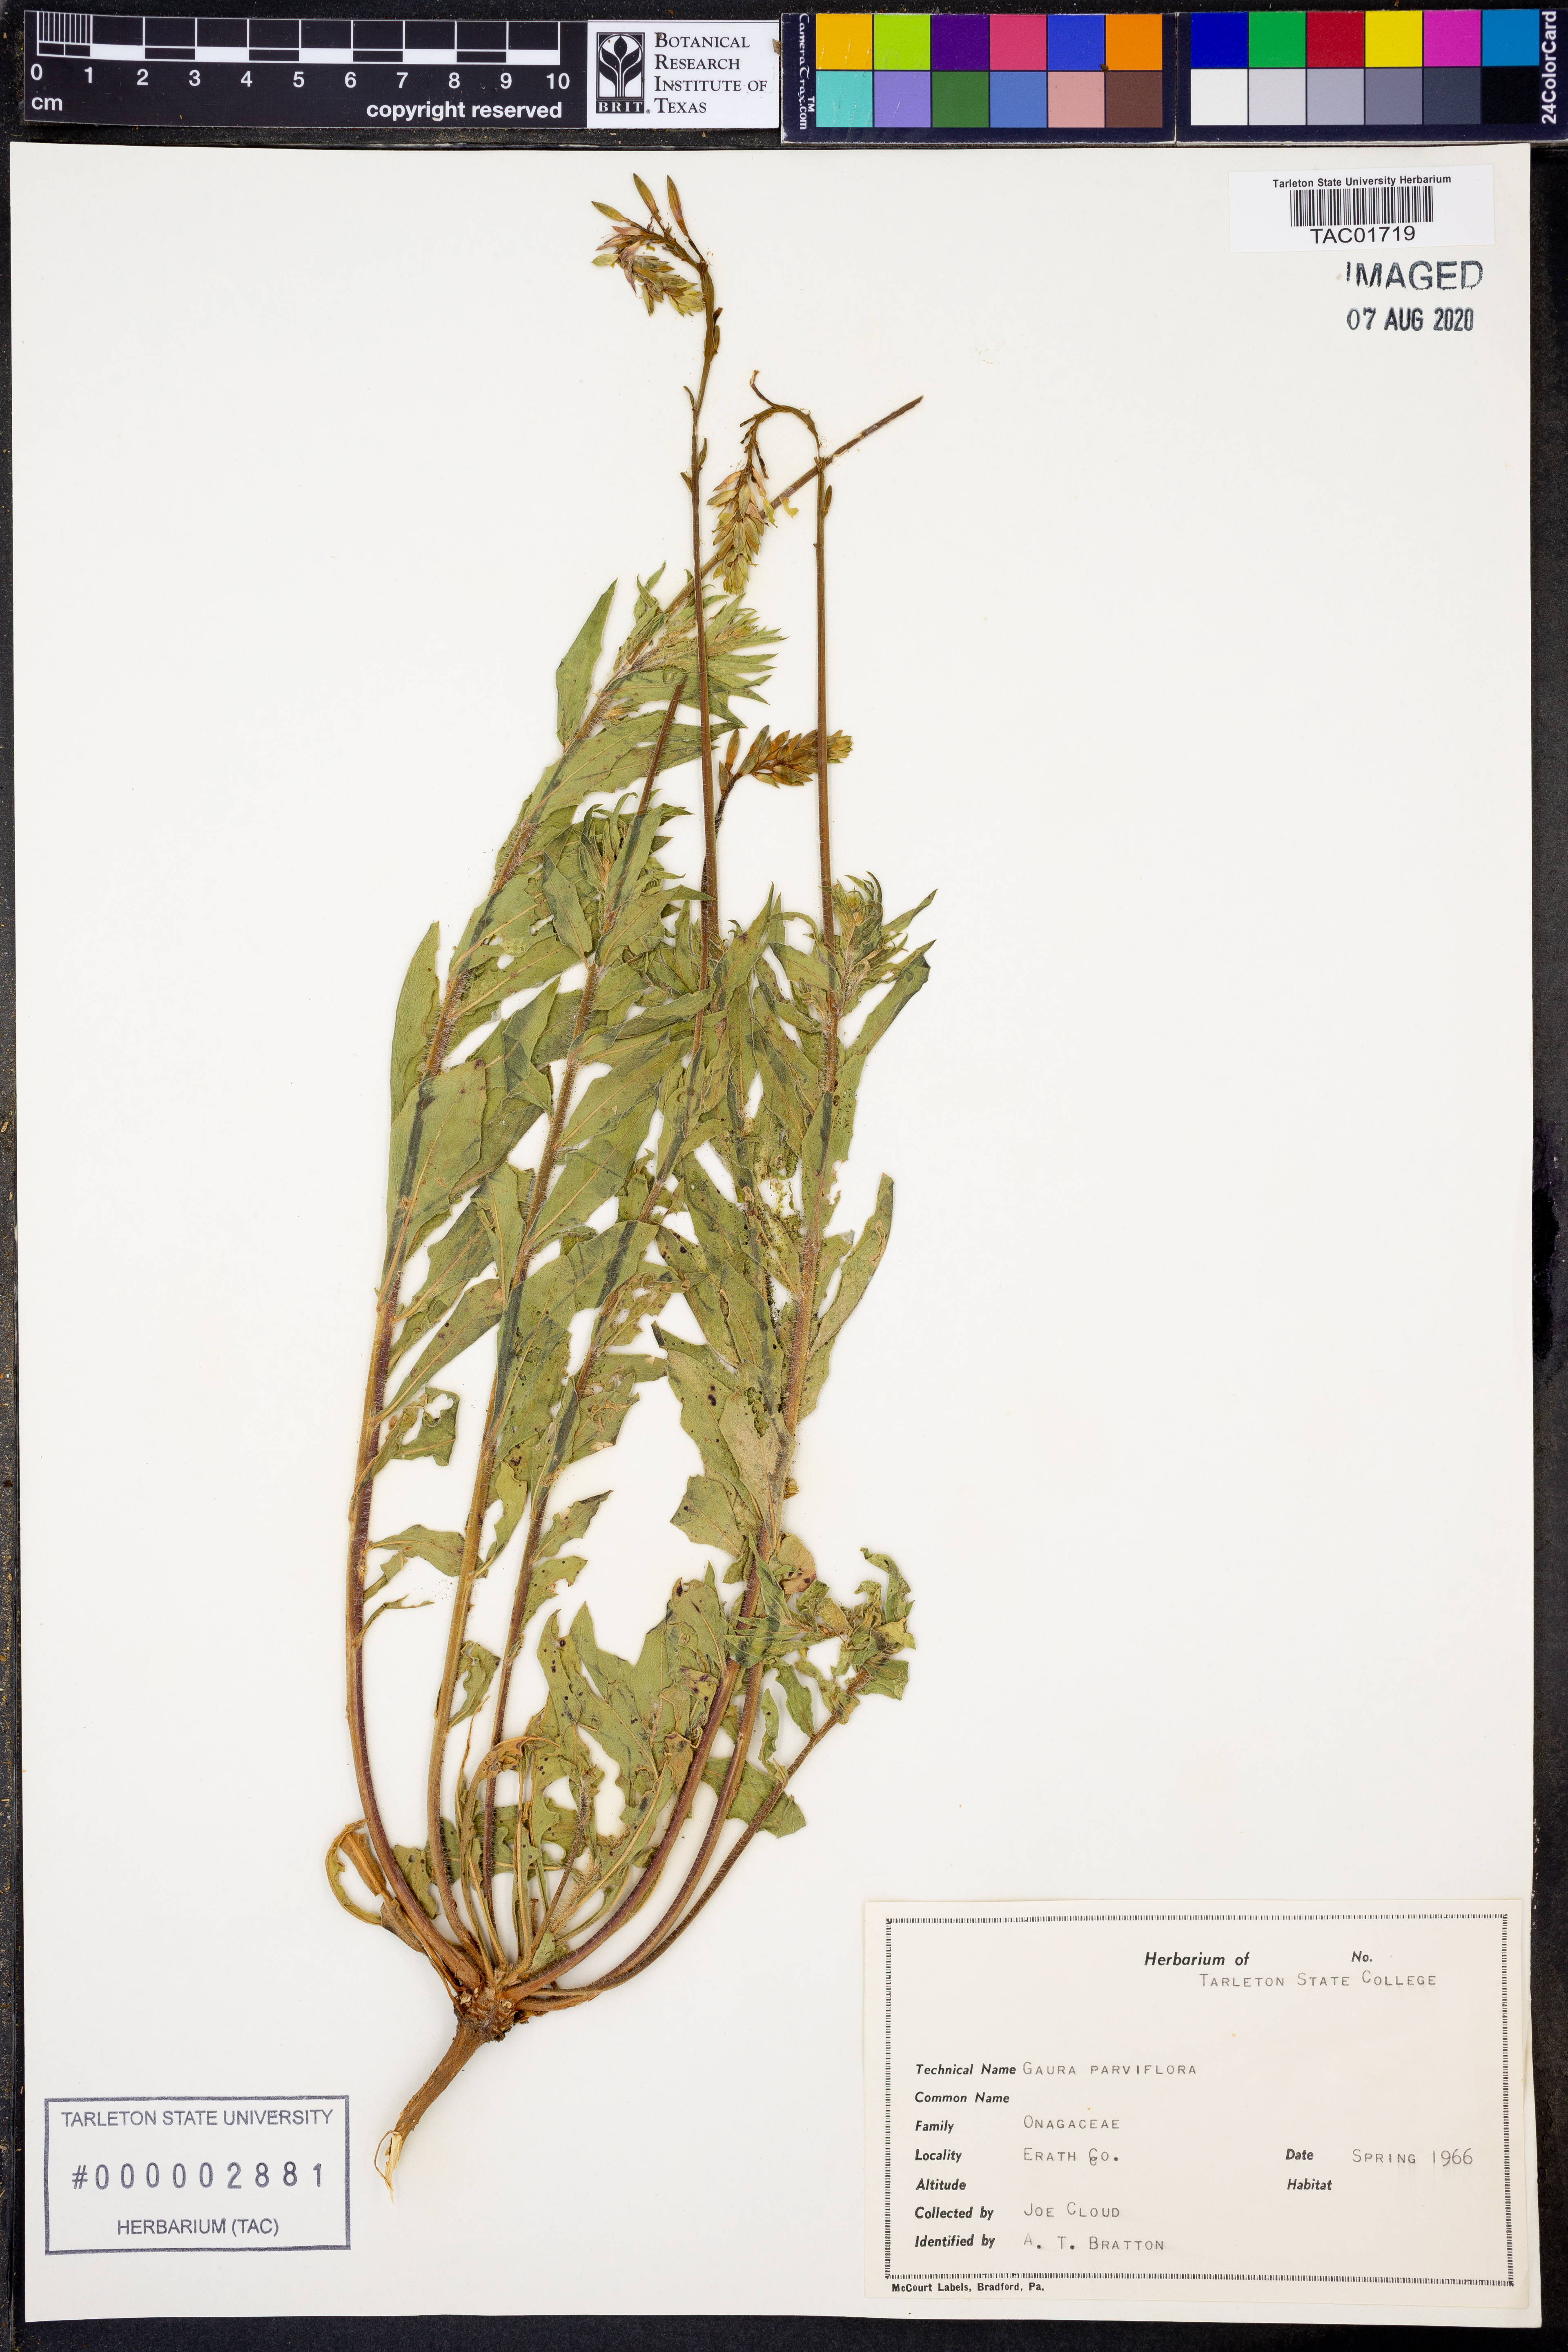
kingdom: Plantae
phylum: Tracheophyta
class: Magnoliopsida
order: Myrtales
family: Onagraceae
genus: Oenothera
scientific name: Oenothera curtiflora
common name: Velvetweed
